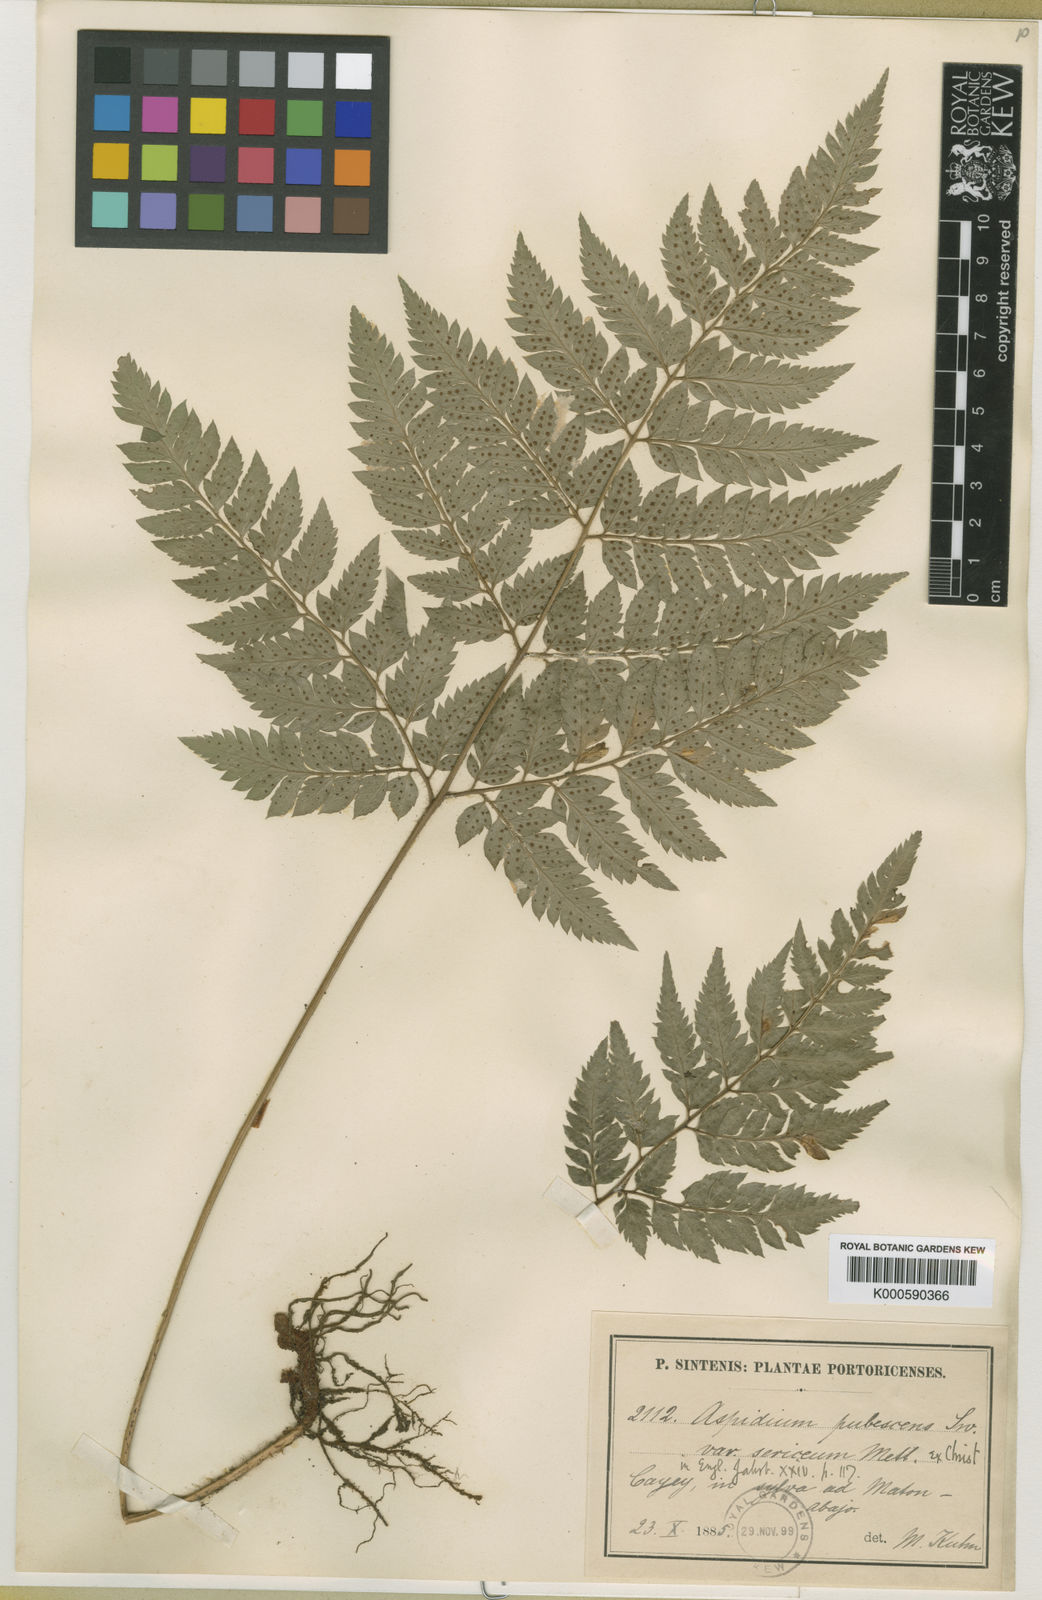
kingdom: Plantae
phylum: Tracheophyta
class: Polypodiopsida
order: Polypodiales
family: Dryopteridaceae
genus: Polystichopsis
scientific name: Polystichopsis chaerophylloides
